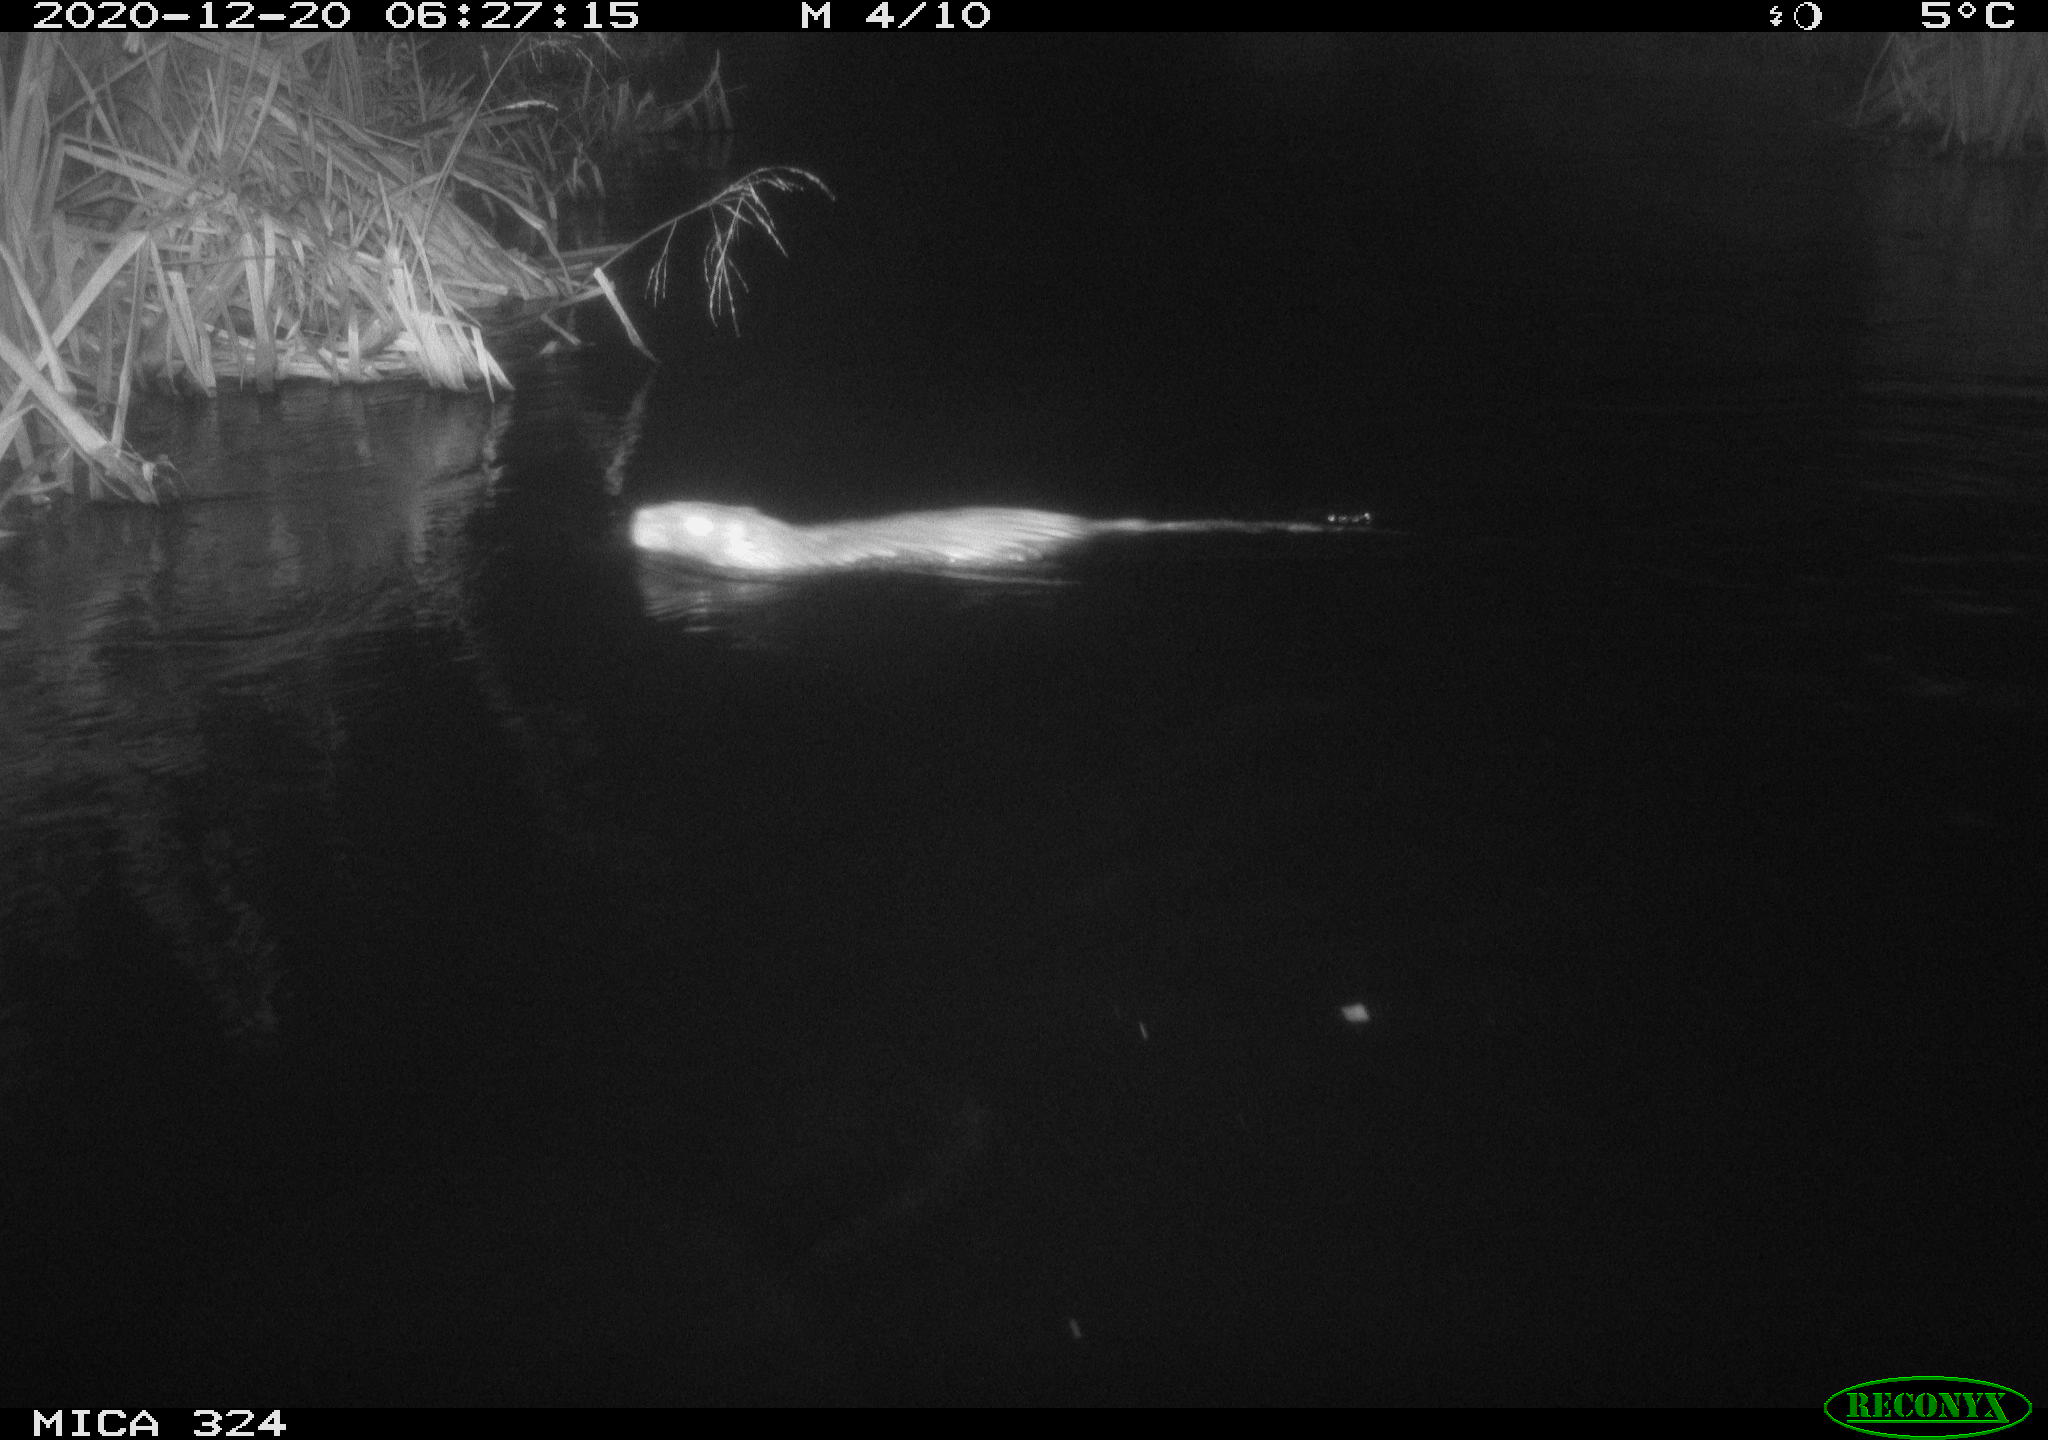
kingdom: Animalia
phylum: Chordata
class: Mammalia
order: Rodentia
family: Myocastoridae
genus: Myocastor
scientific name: Myocastor coypus
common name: Coypu
